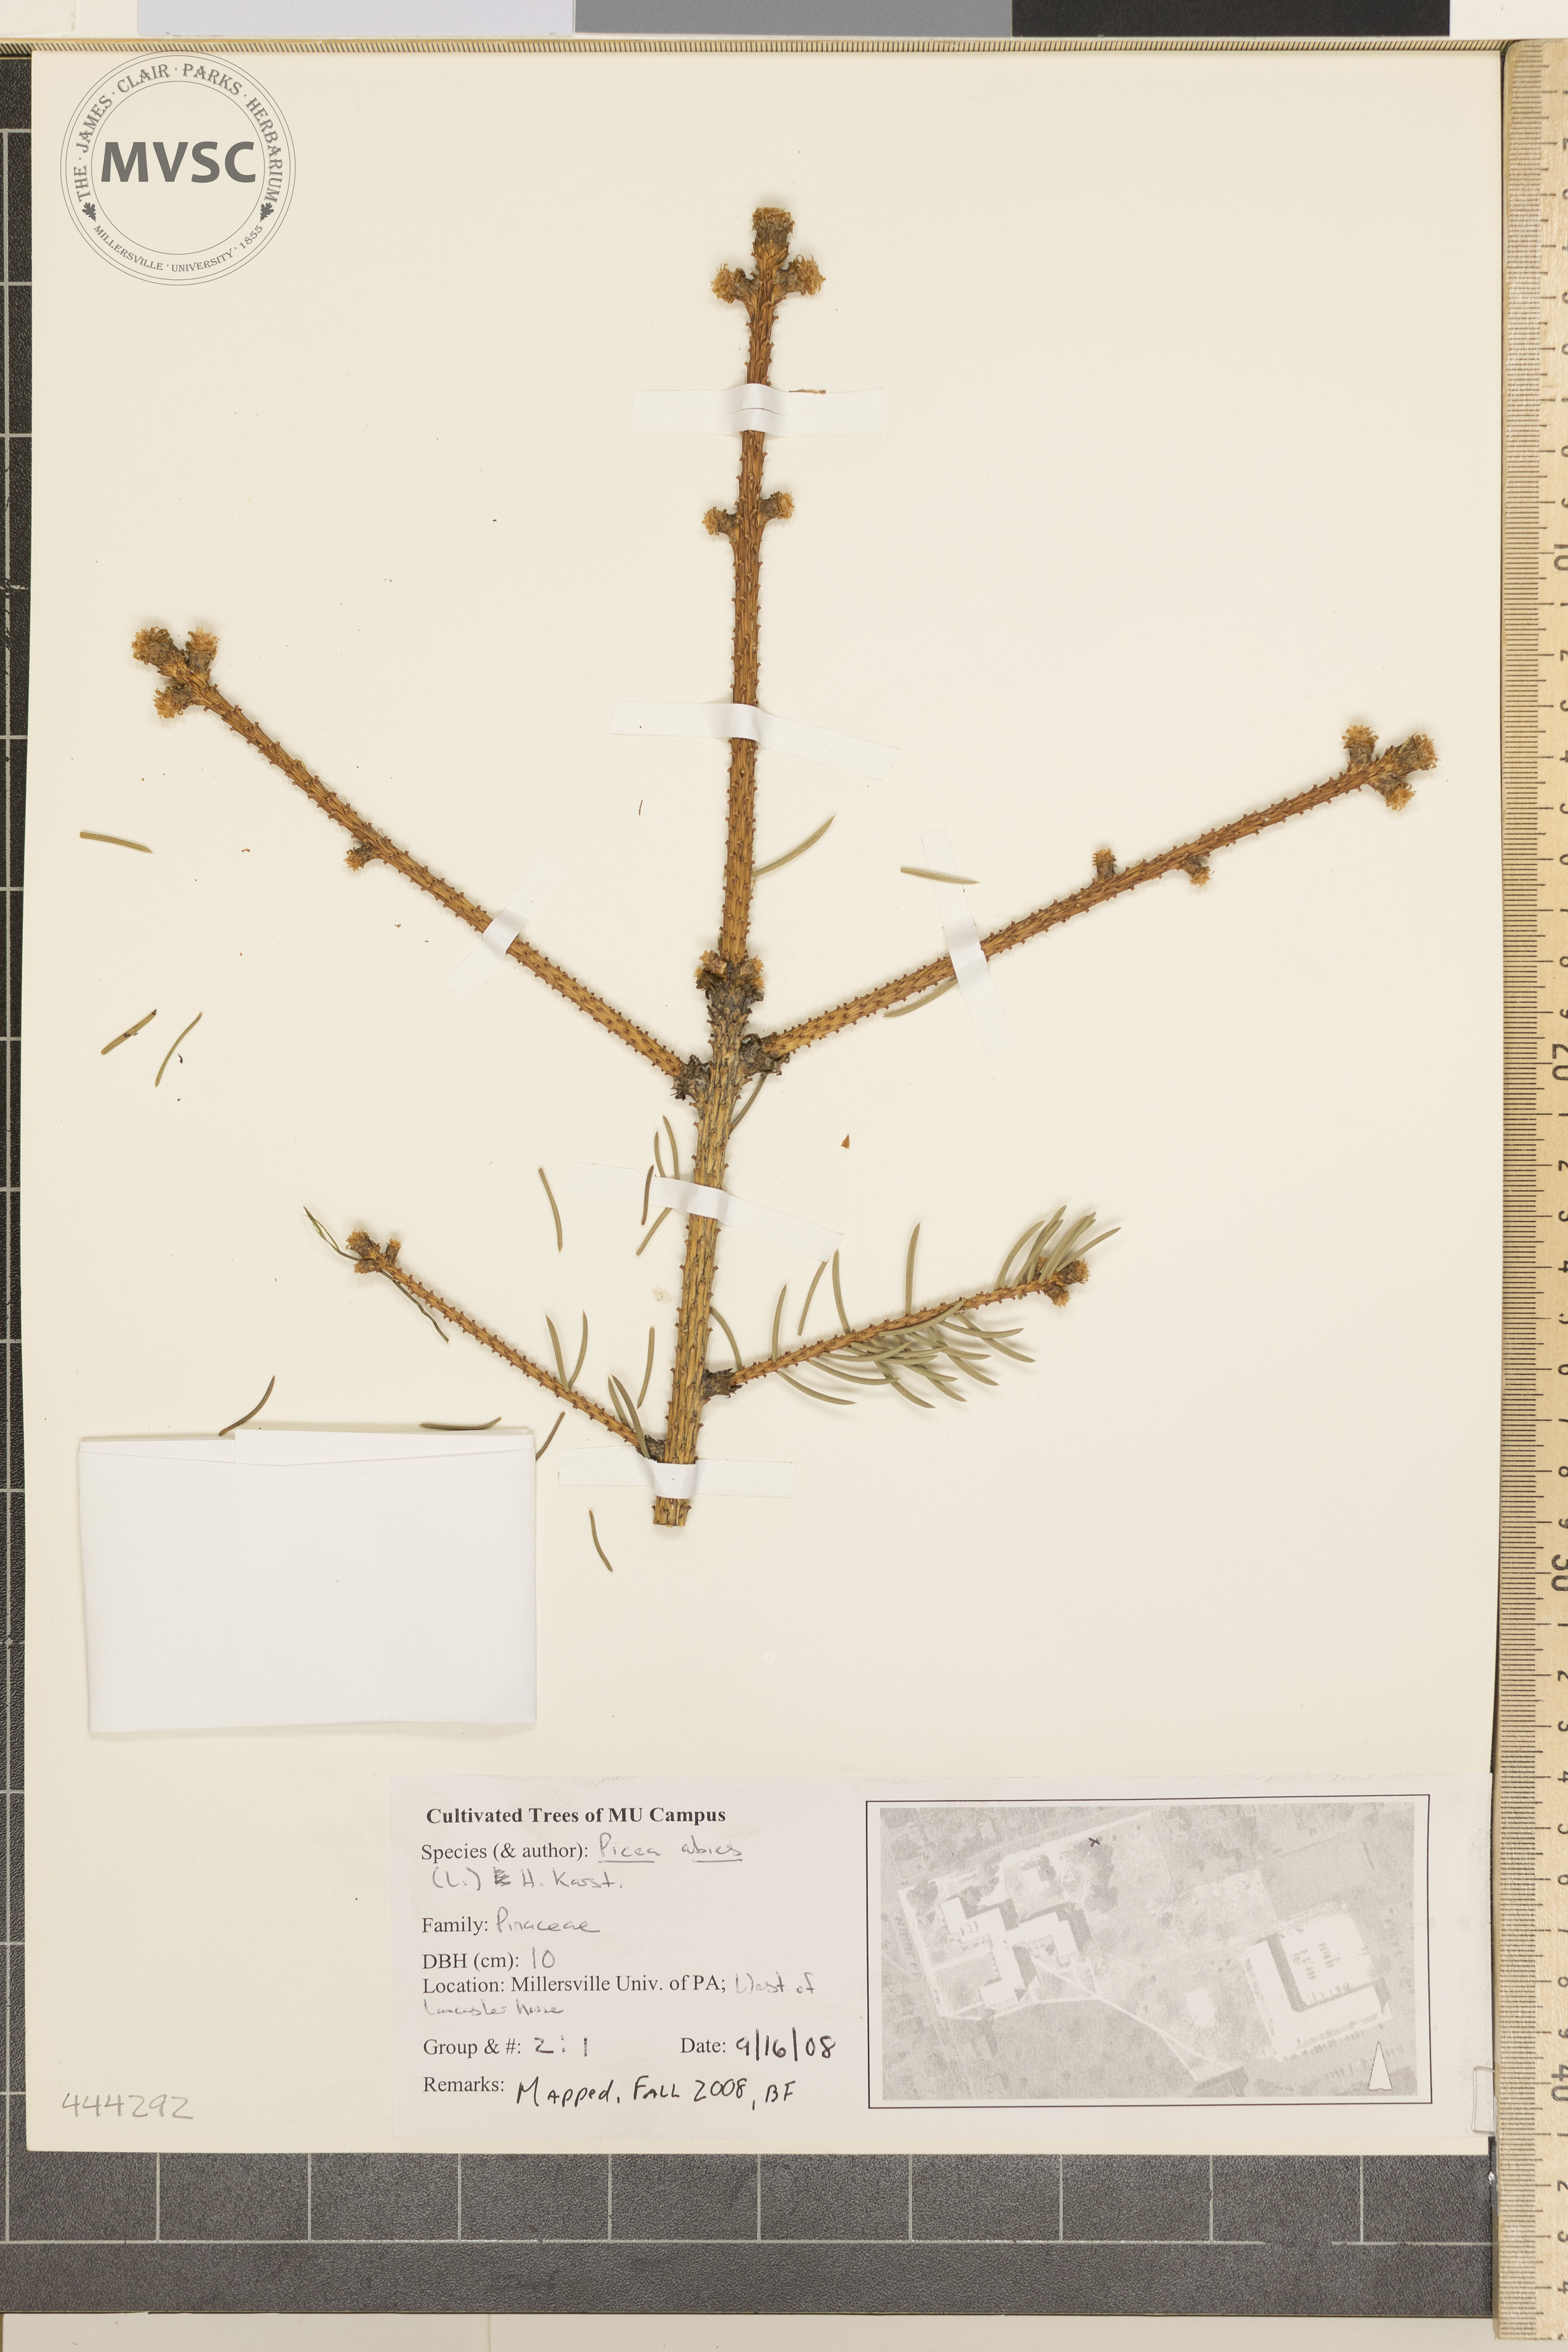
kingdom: Plantae
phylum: Tracheophyta
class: Pinopsida
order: Pinales
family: Pinaceae
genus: Picea
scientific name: Picea abies
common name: Norway Spruce
